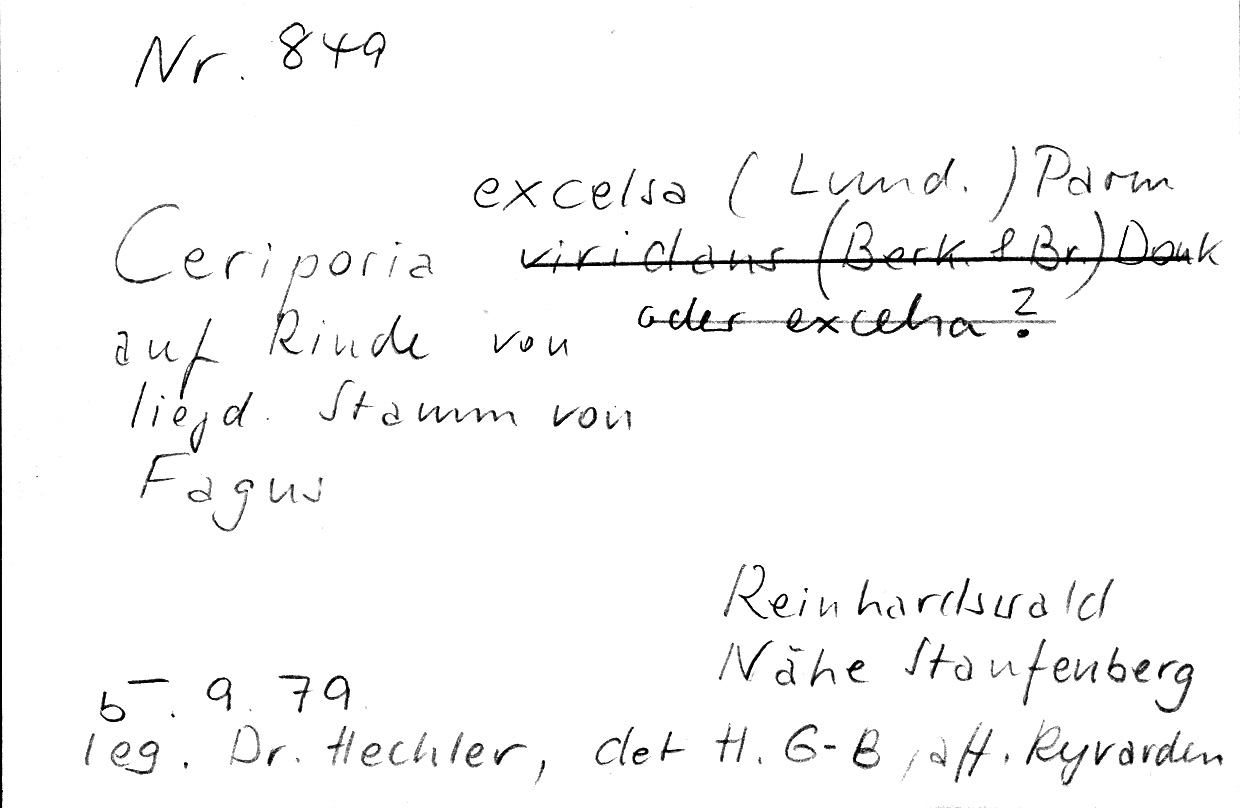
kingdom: Plantae
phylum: Tracheophyta
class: Magnoliopsida
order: Fagales
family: Fagaceae
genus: Fagus
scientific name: Fagus sylvatica
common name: Beech
